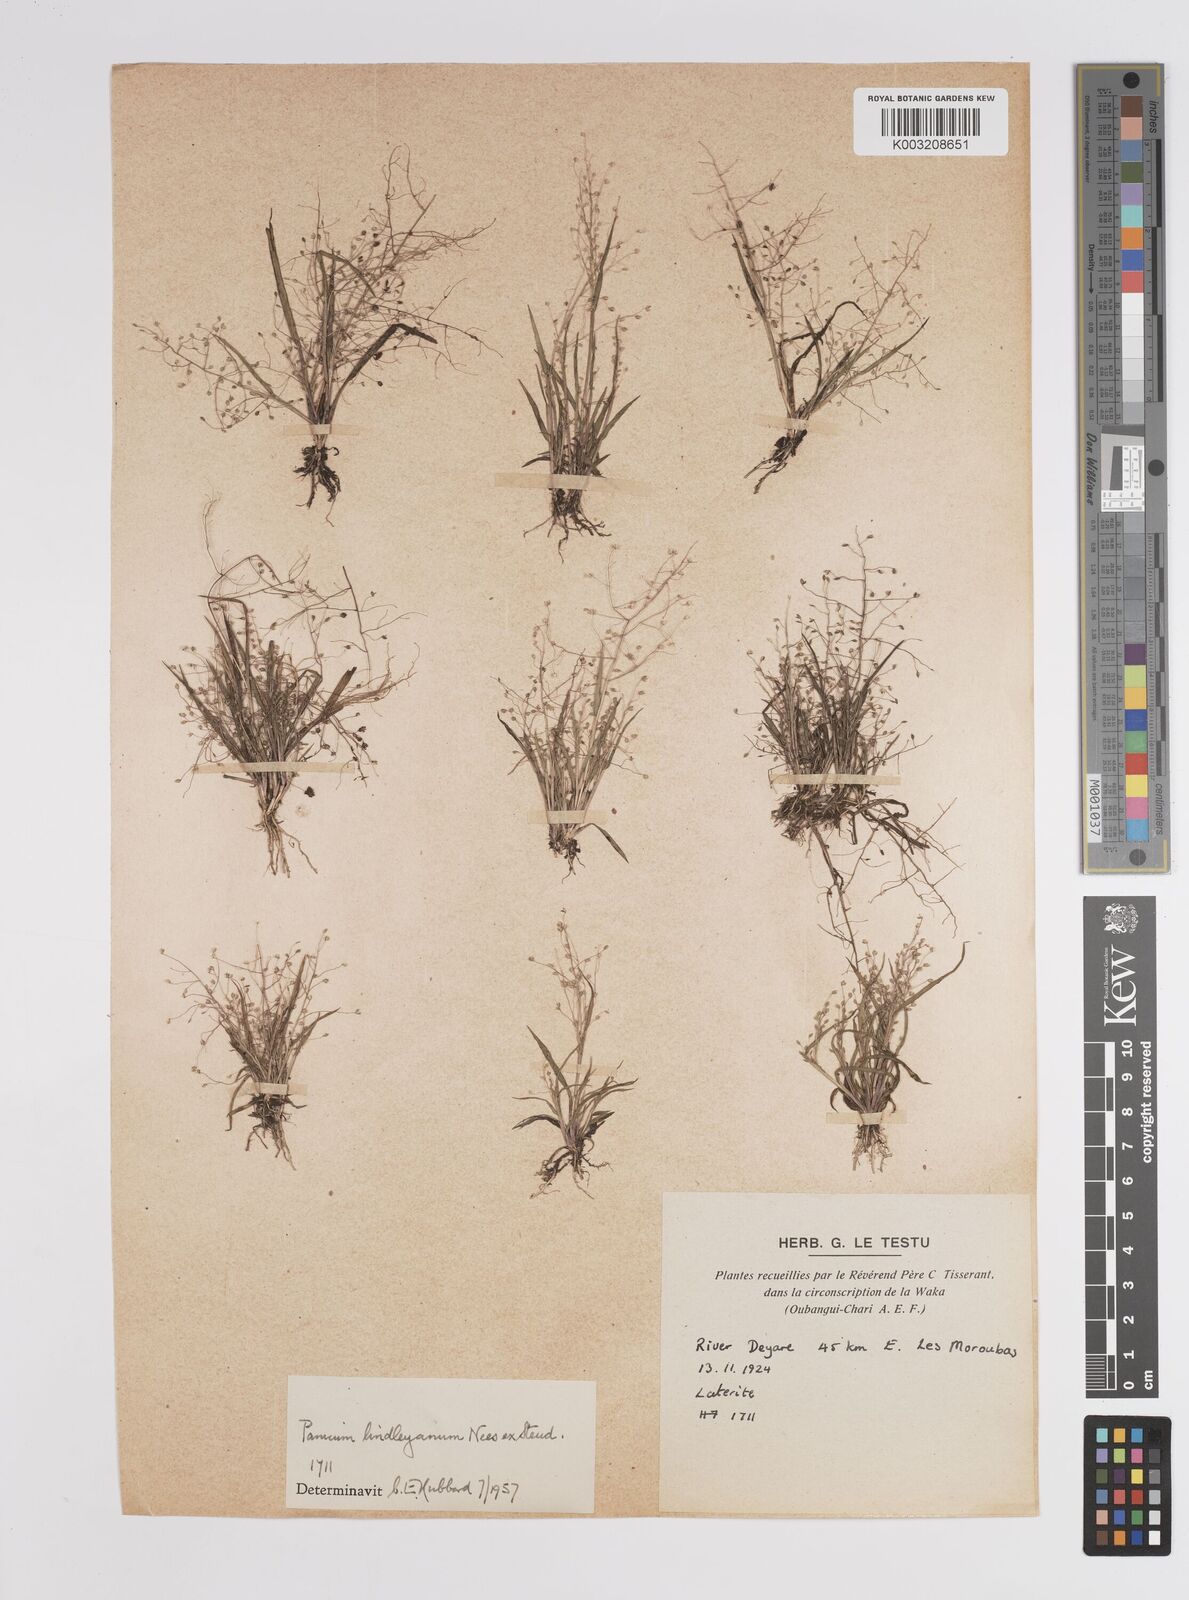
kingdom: Plantae
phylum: Tracheophyta
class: Liliopsida
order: Poales
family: Poaceae
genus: Panicum
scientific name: Panicum
